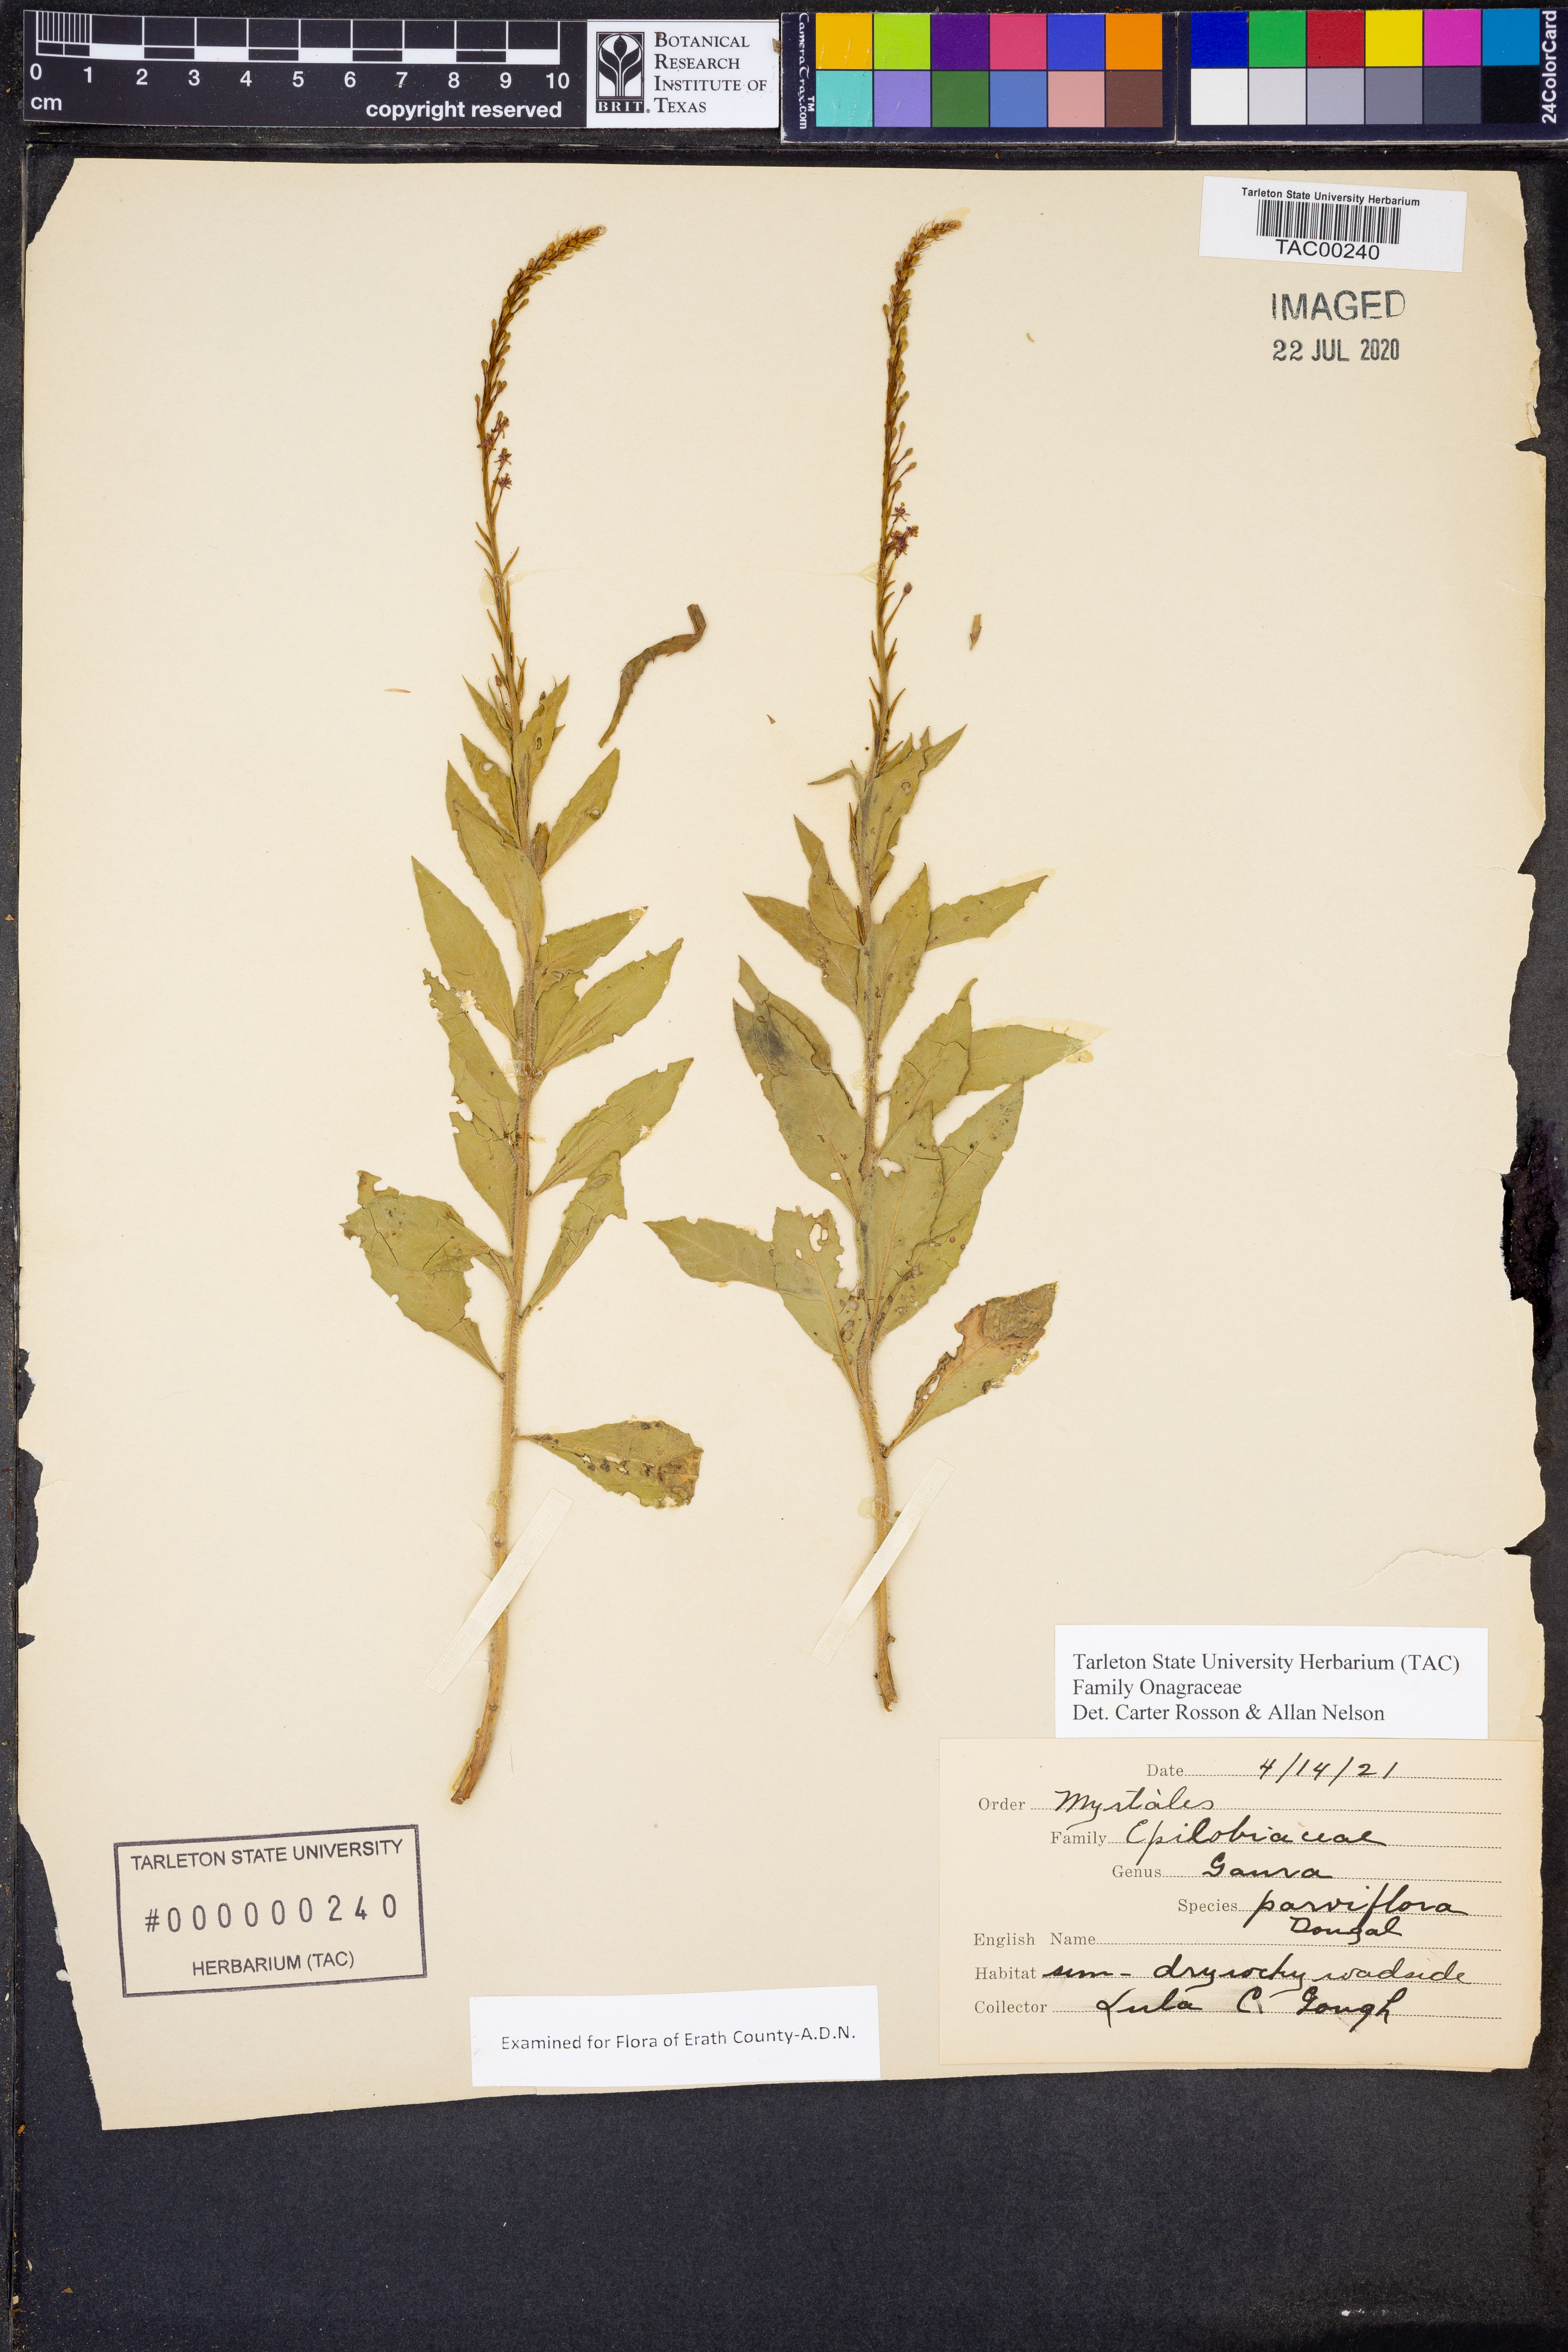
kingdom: Plantae
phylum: Tracheophyta
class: Magnoliopsida
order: Myrtales
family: Onagraceae
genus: Oenothera
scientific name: Oenothera curtiflora
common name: Velvetweed
